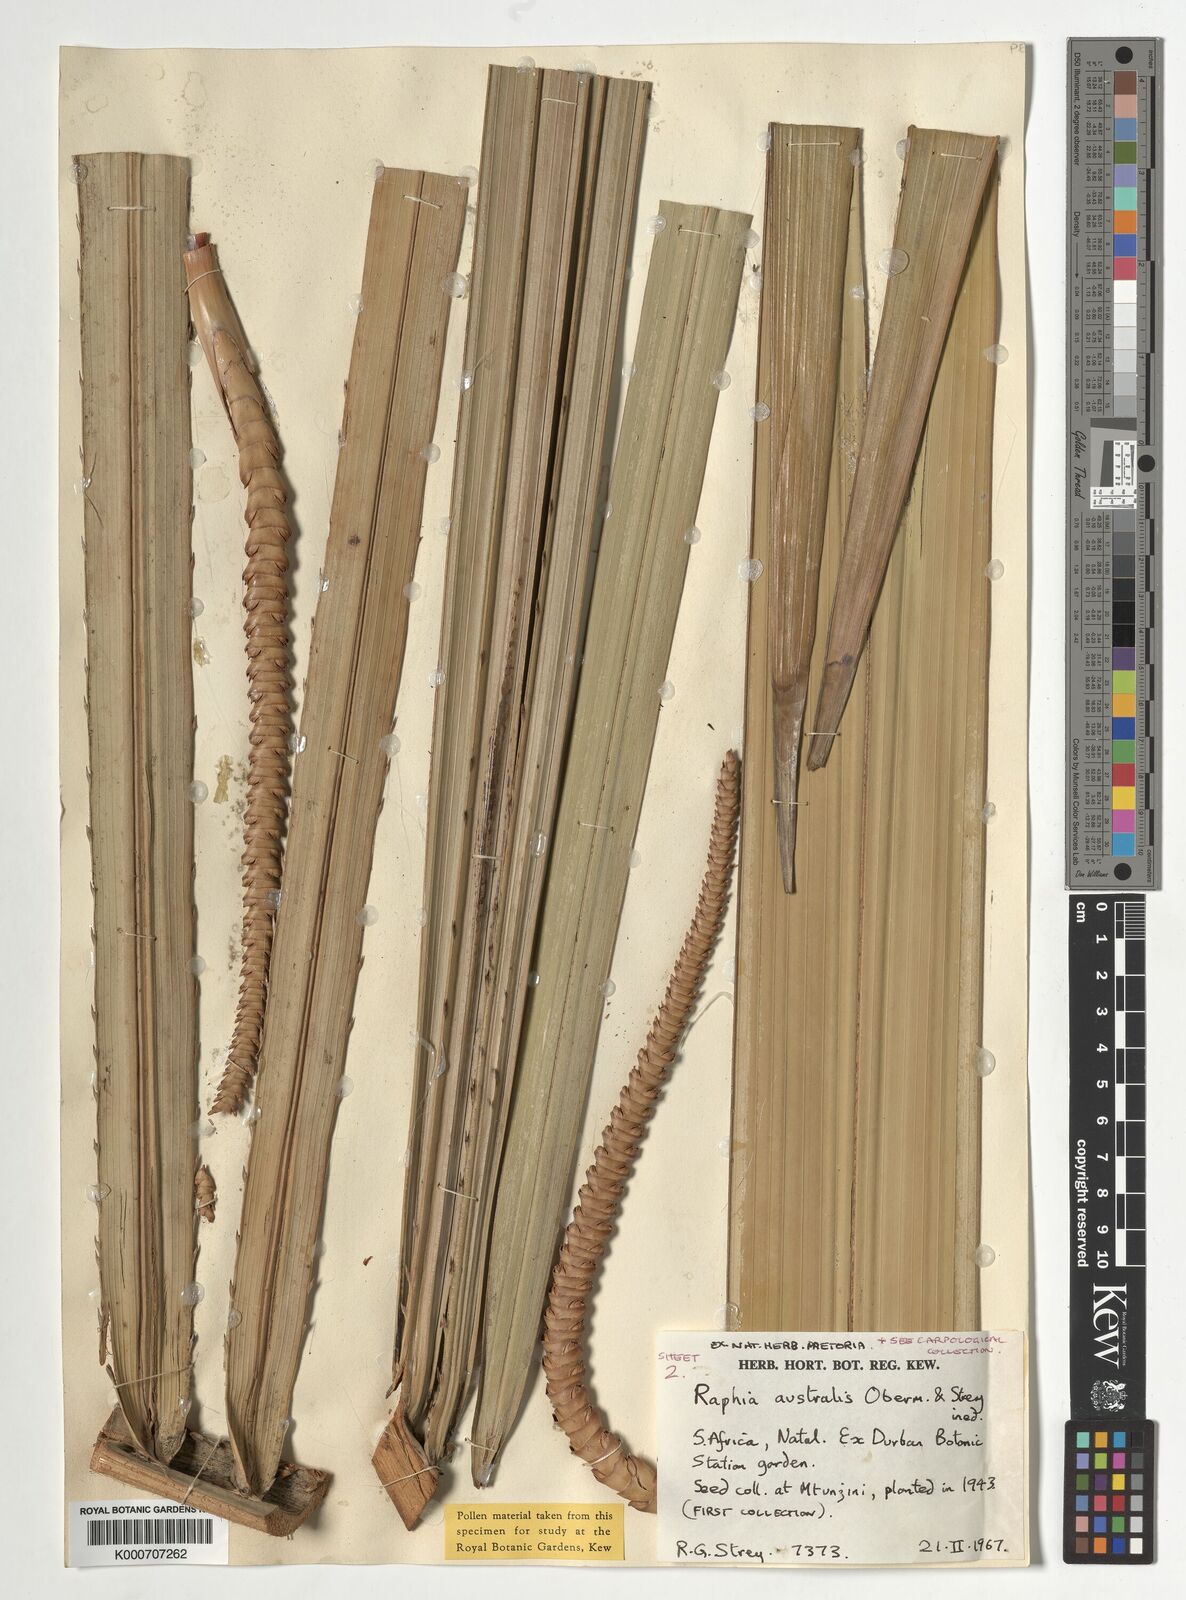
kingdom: Plantae
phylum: Tracheophyta
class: Liliopsida
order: Arecales
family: Arecaceae
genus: Raphia
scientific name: Raphia australis
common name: Giant palm
